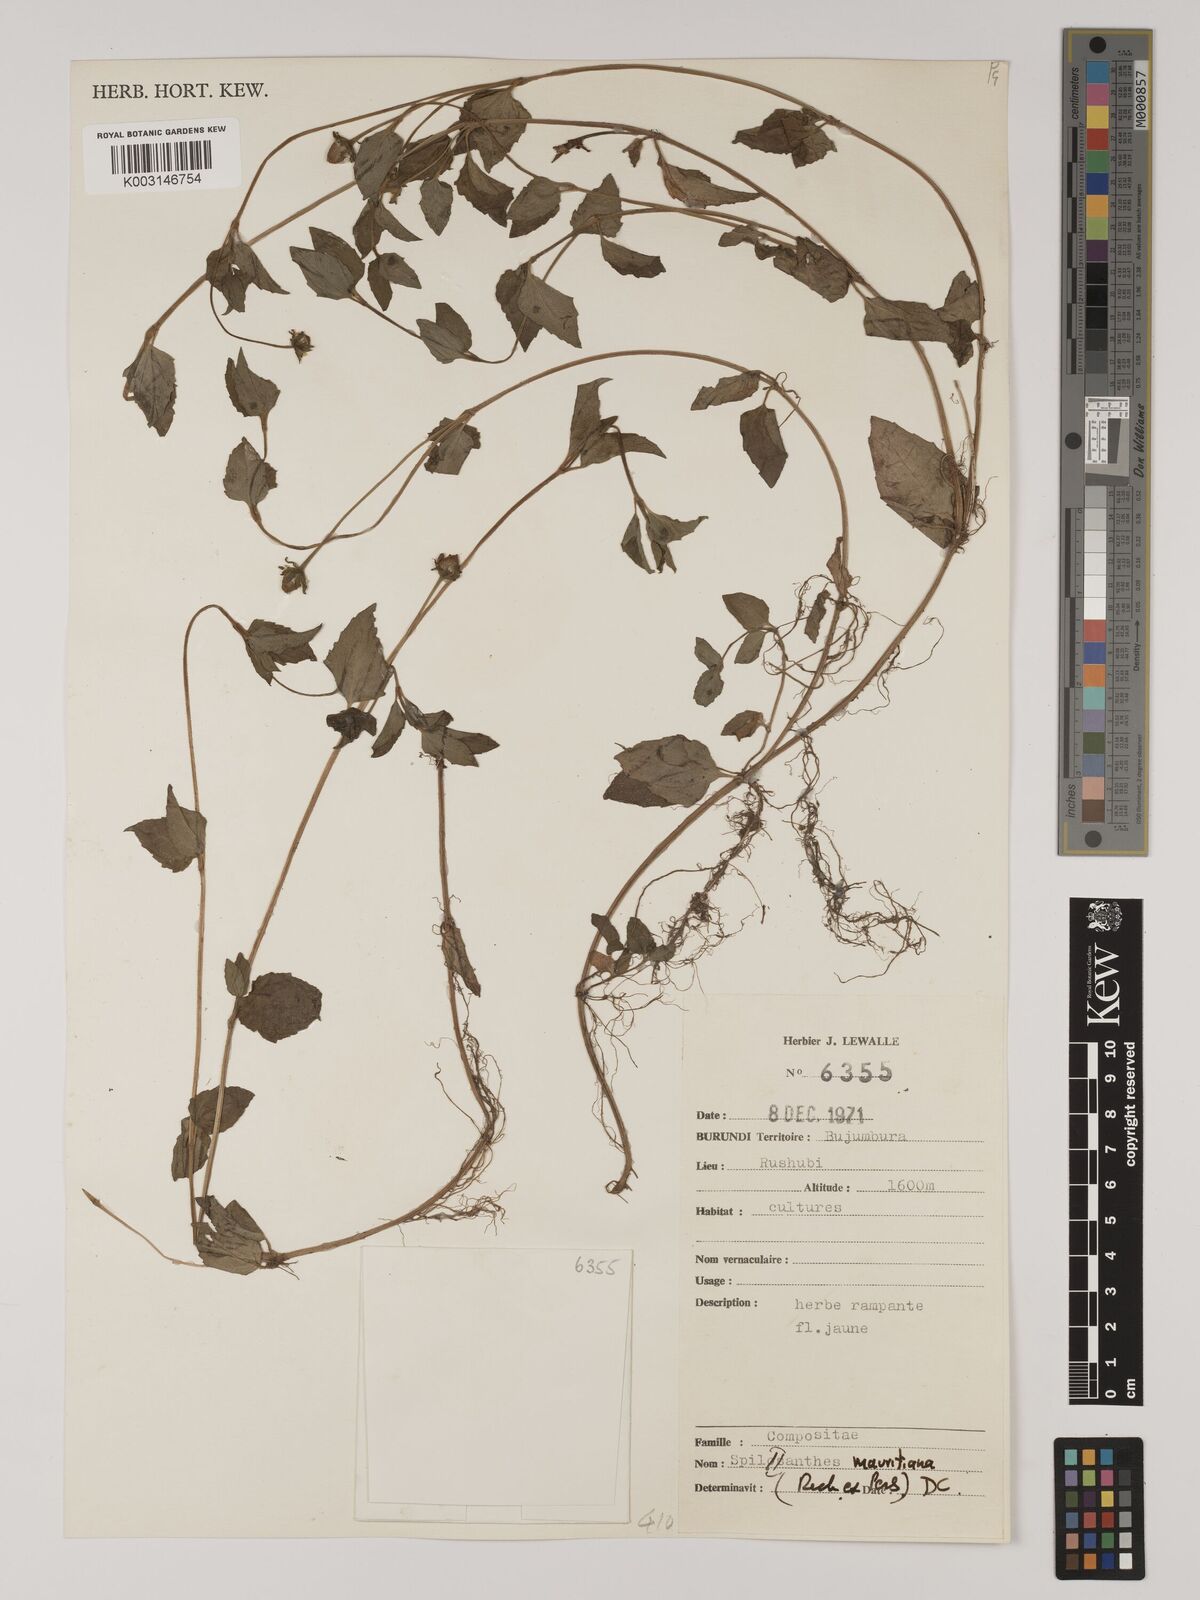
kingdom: Plantae
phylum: Tracheophyta
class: Magnoliopsida
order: Asterales
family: Asteraceae
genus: Acmella
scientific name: Acmella caulirhiza
